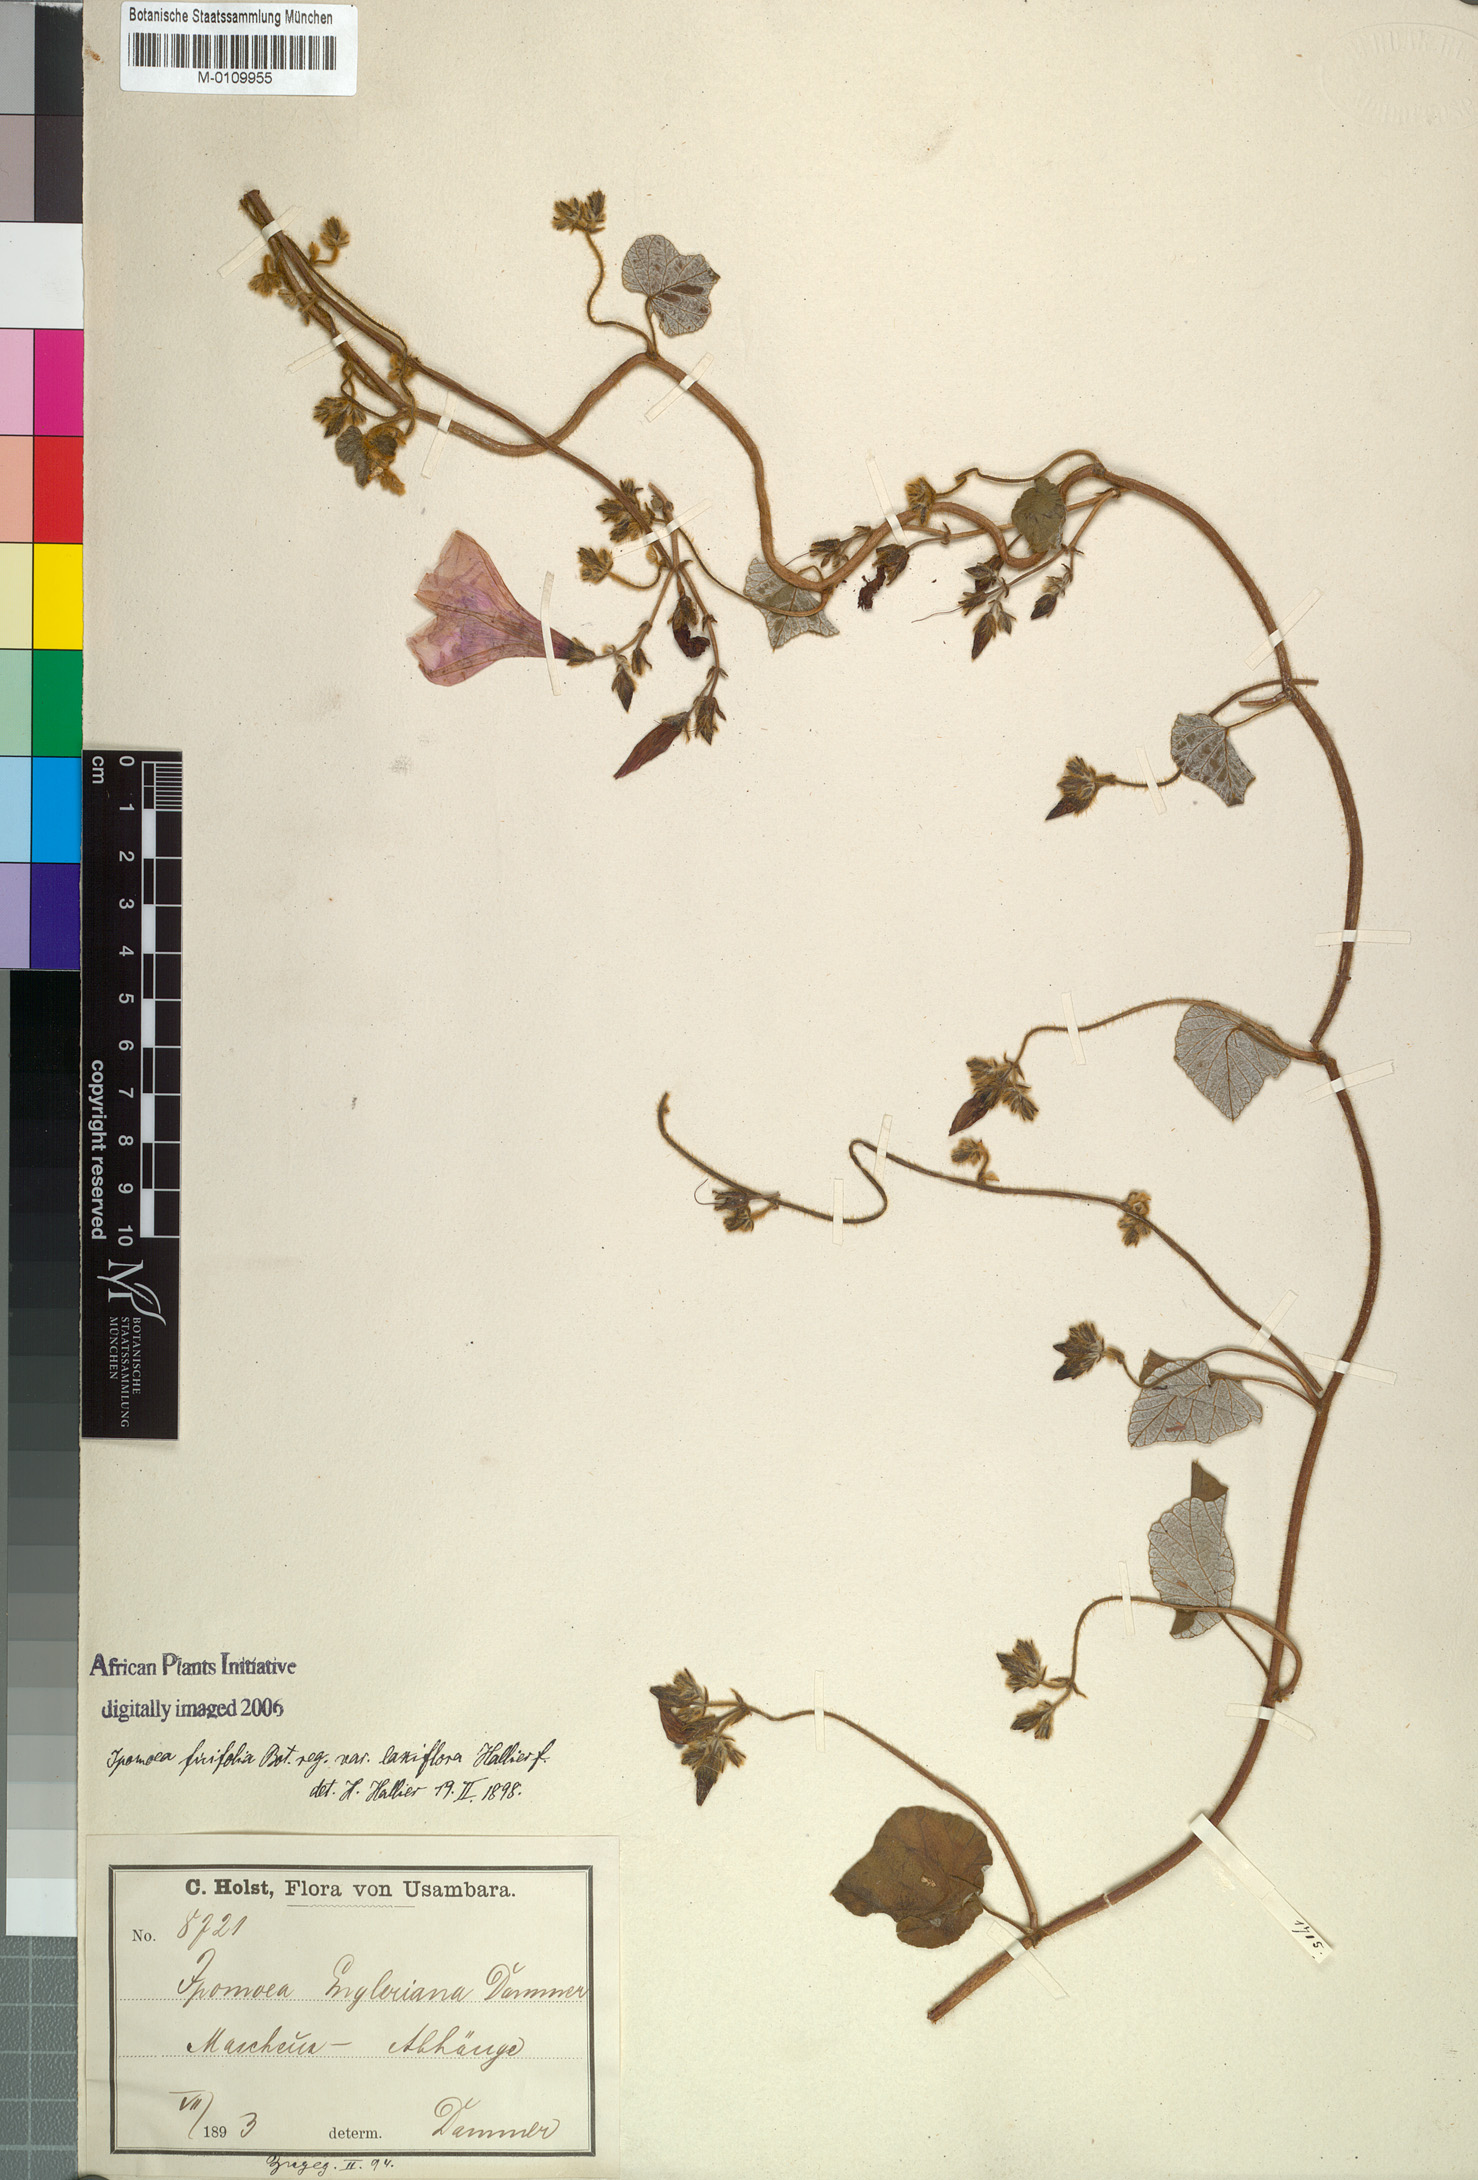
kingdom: Plantae
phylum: Tracheophyta
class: Magnoliopsida
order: Solanales
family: Convolvulaceae
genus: Ipomoea
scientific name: Ipomoea ficifolia
